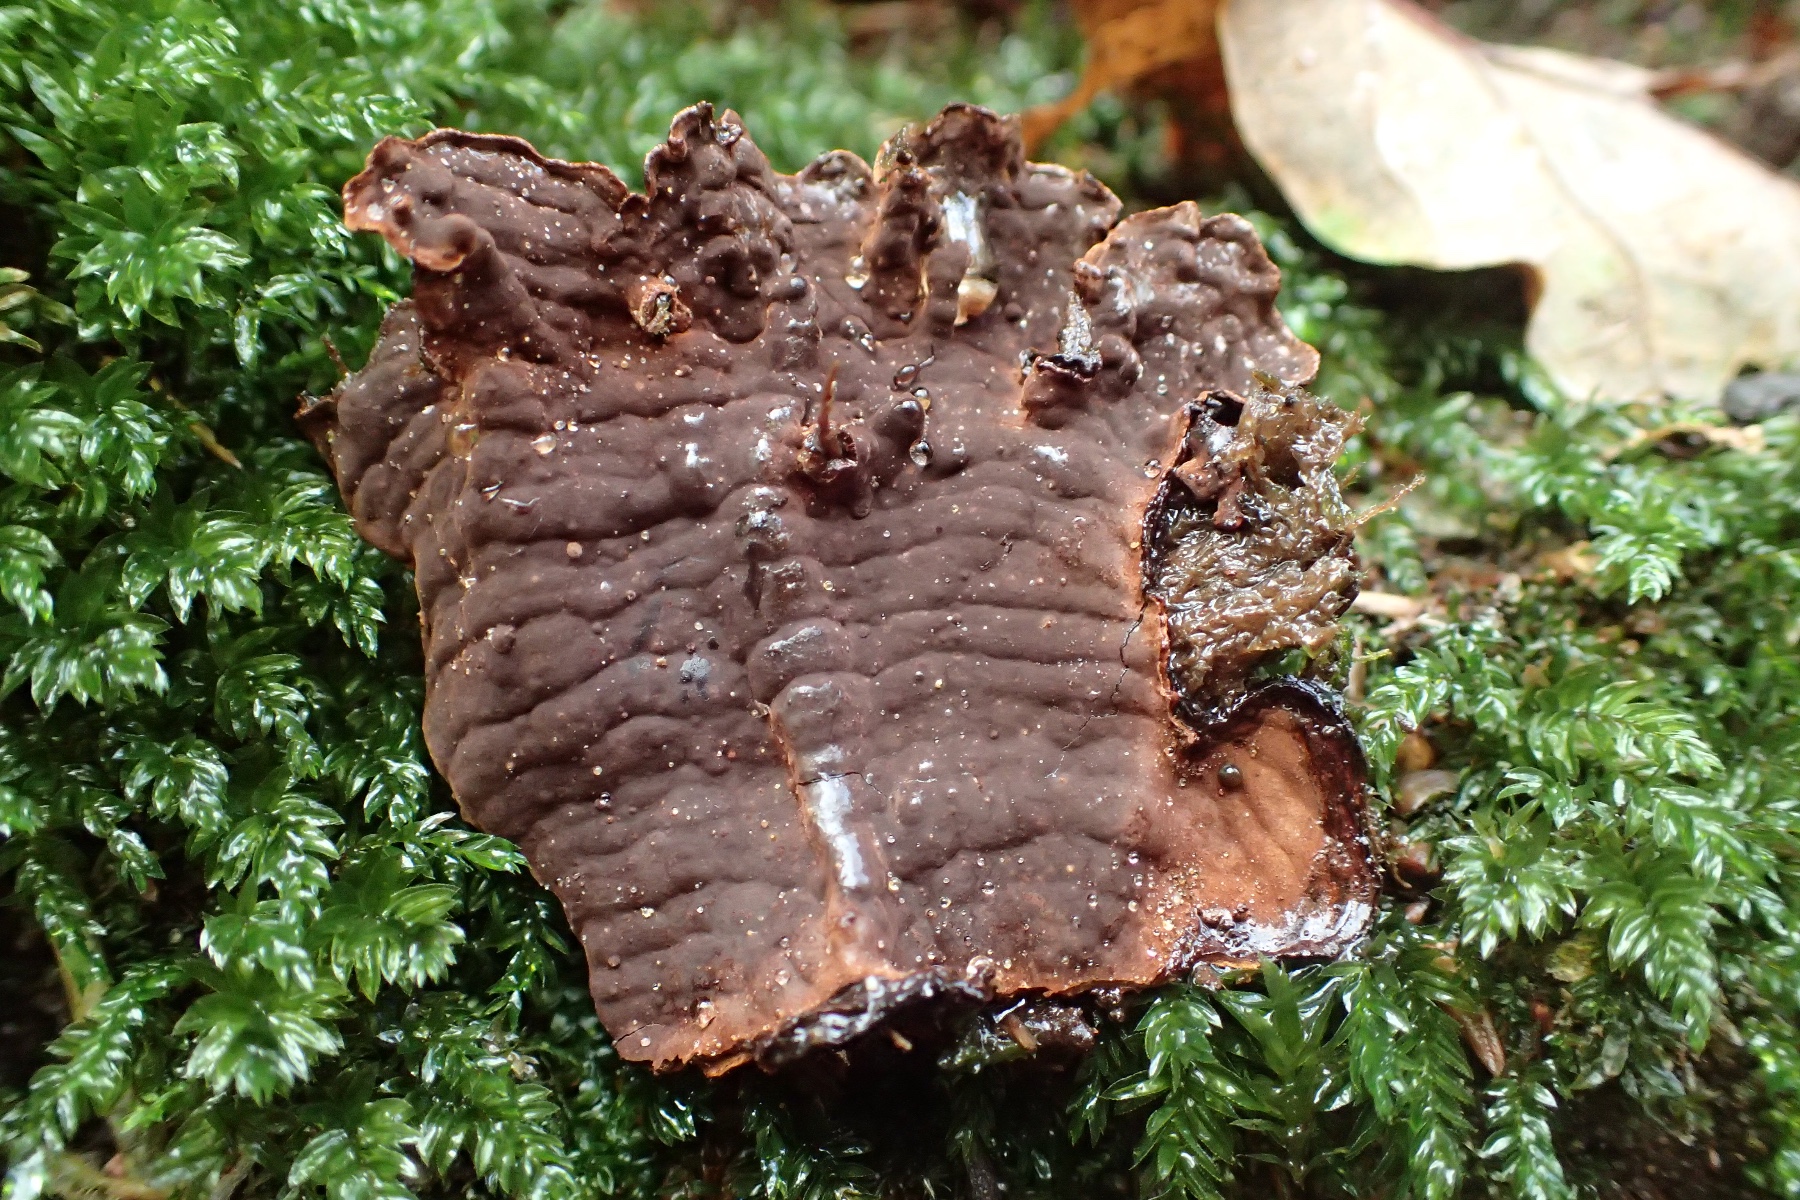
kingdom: Fungi
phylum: Basidiomycota
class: Agaricomycetes
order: Hymenochaetales
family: Hymenochaetaceae
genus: Hymenochaete
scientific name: Hymenochaete rubiginosa
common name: stiv ruslædersvamp
